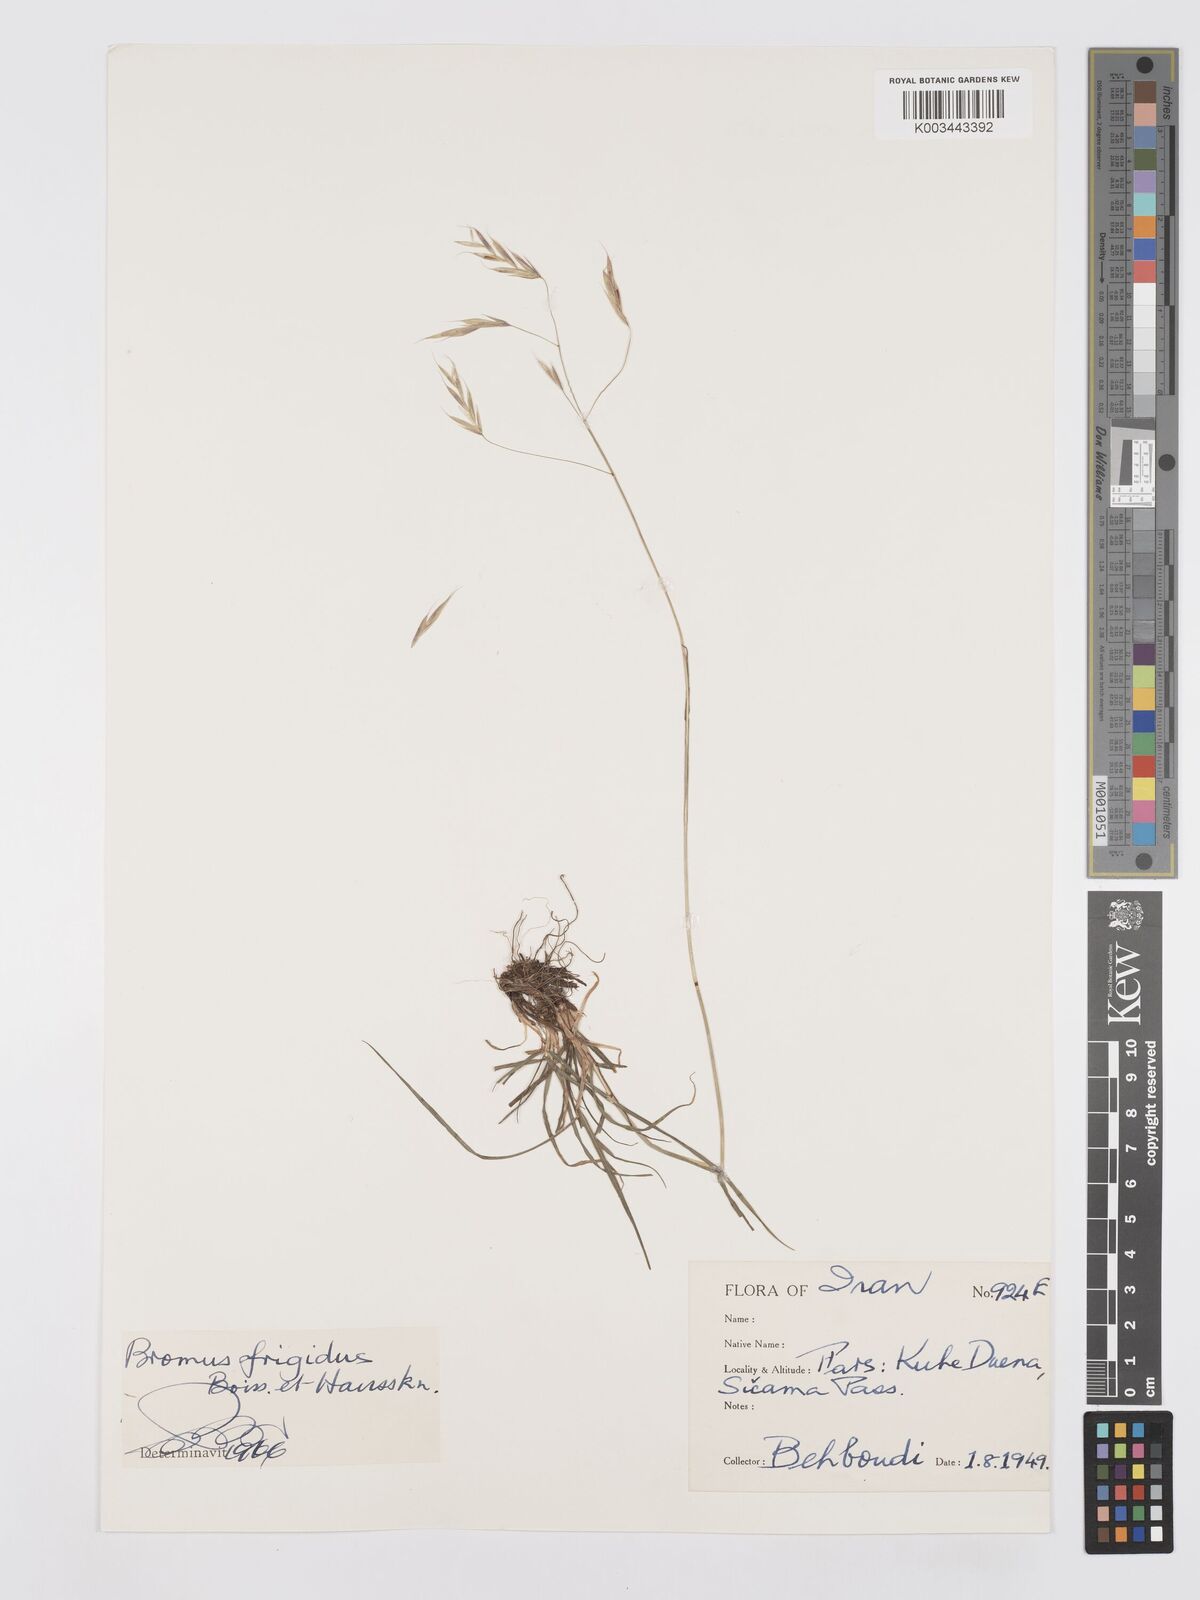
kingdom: Plantae
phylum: Tracheophyta
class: Liliopsida
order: Poales
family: Poaceae
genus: Bromus
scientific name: Bromus frigidus
